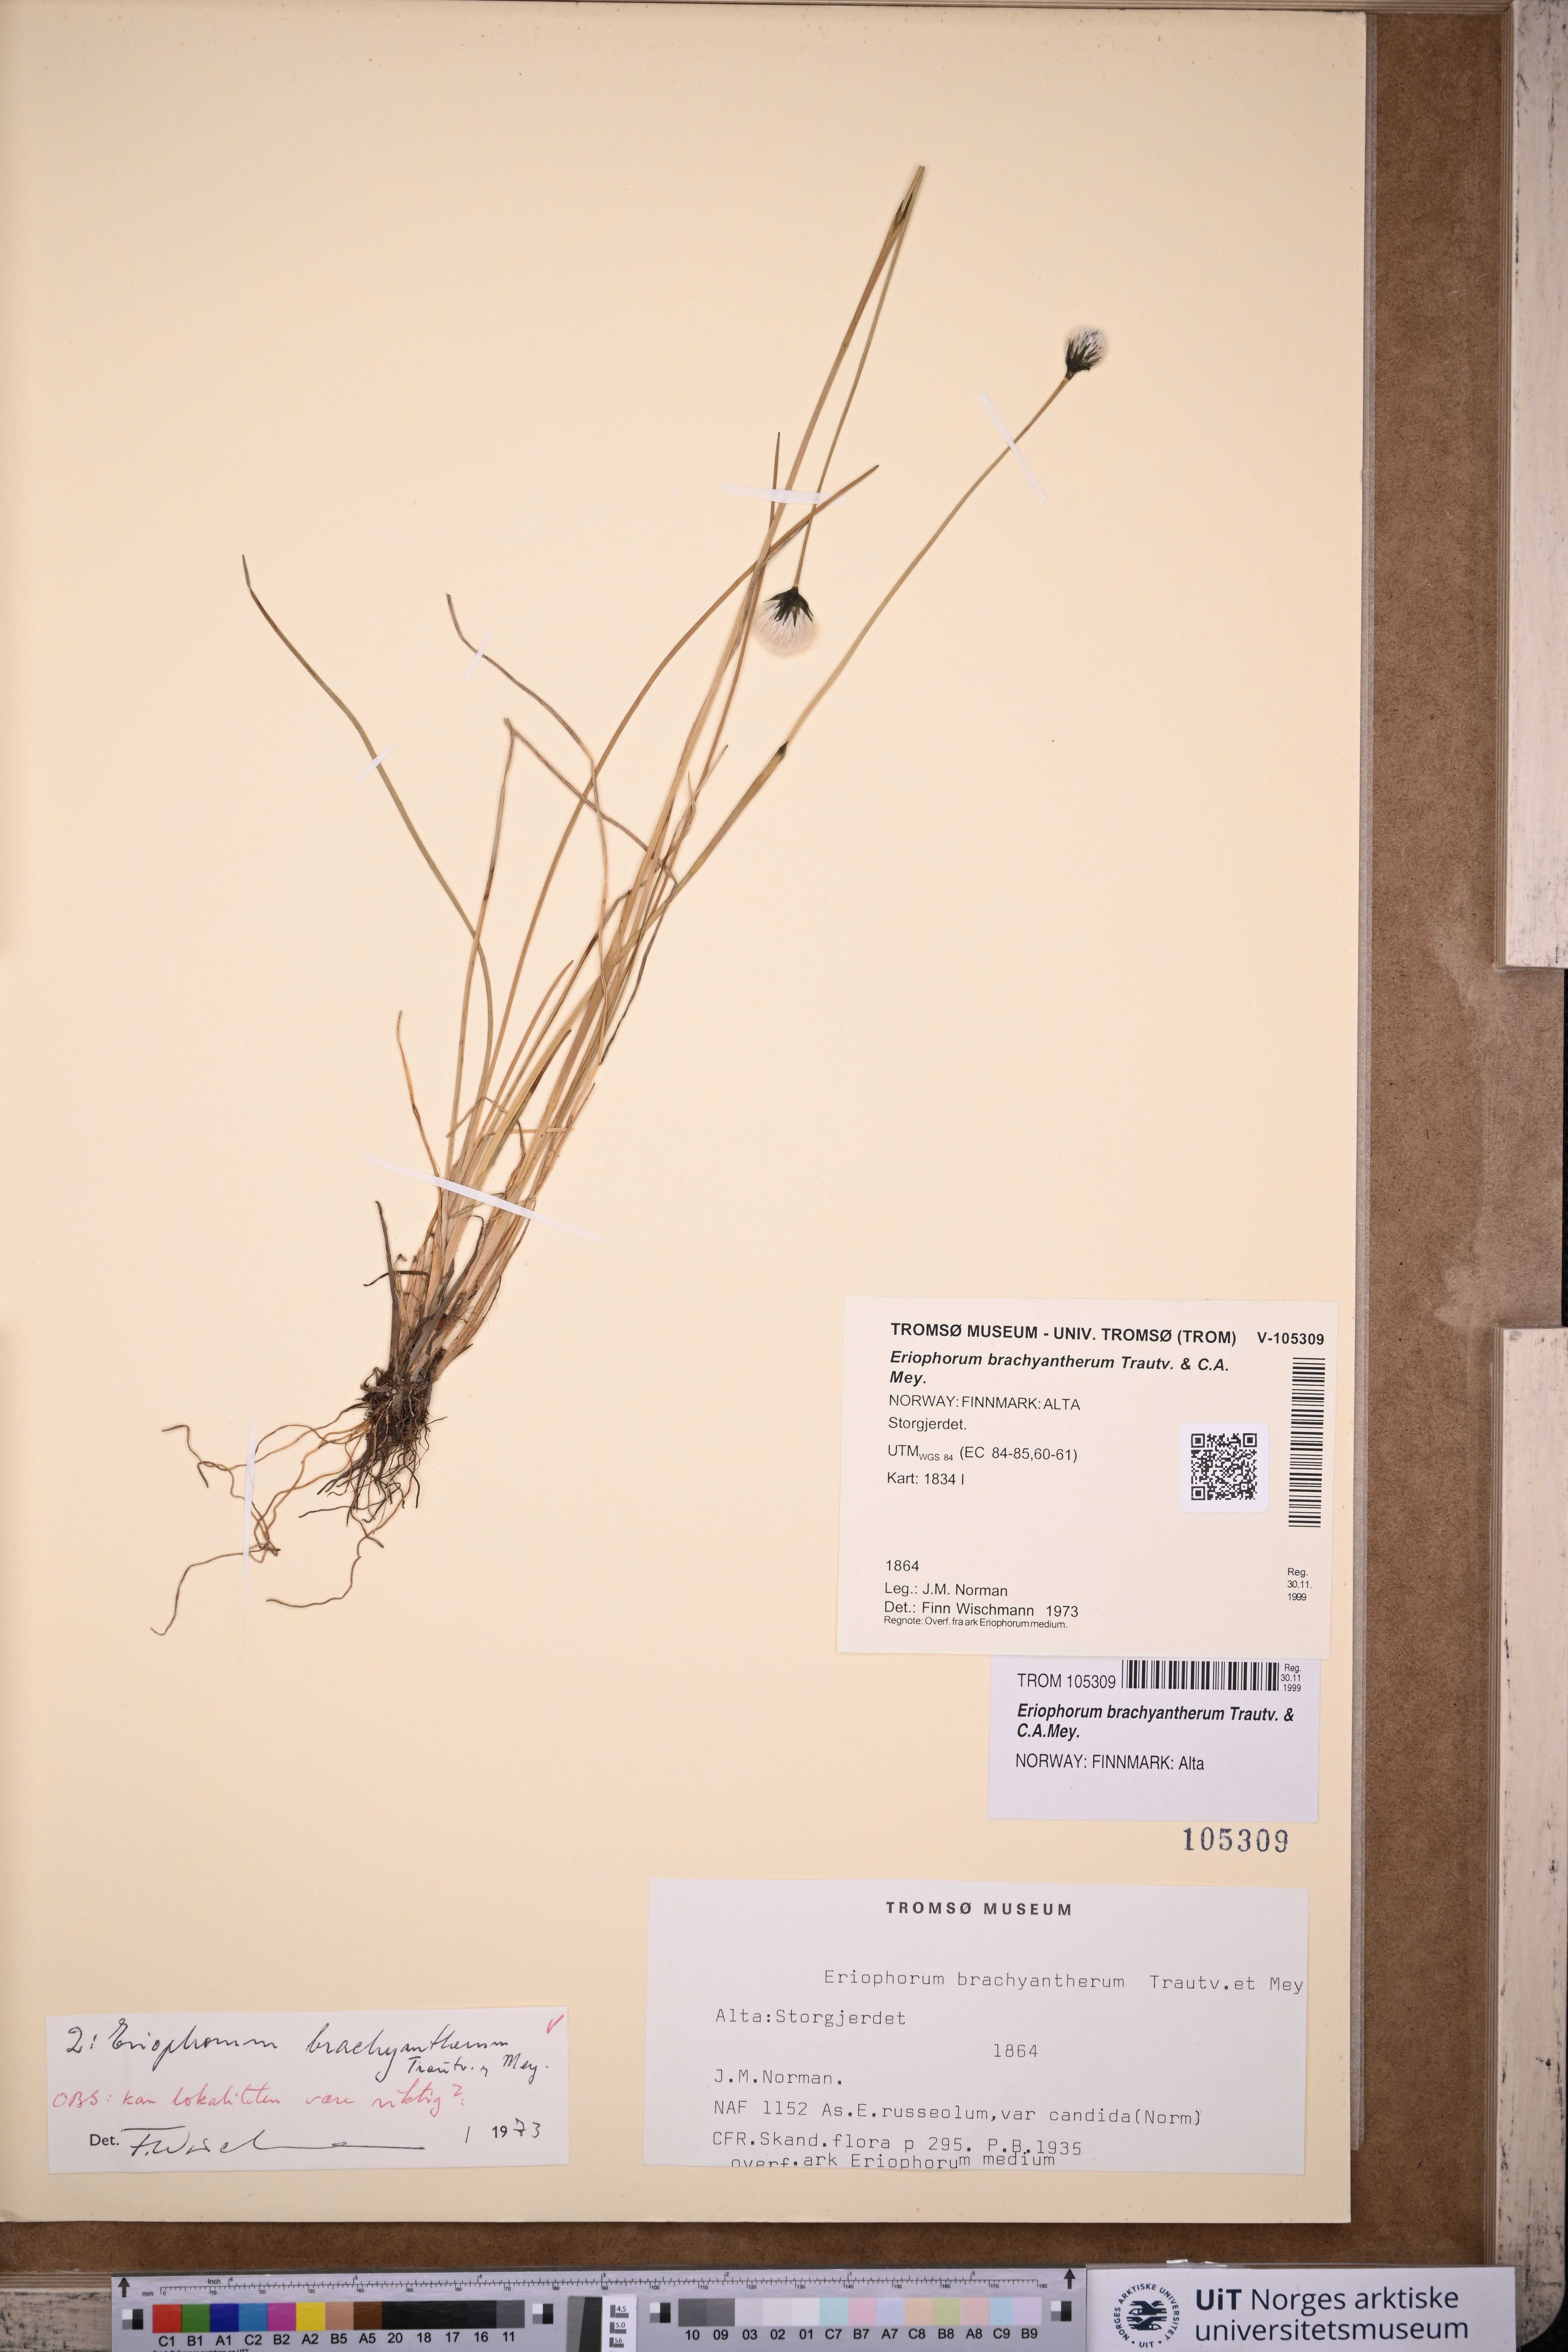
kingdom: Plantae
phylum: Tracheophyta
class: Liliopsida
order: Poales
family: Cyperaceae
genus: Eriophorum
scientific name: Eriophorum brachyantherum
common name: Closed-sheathed cottongrass
